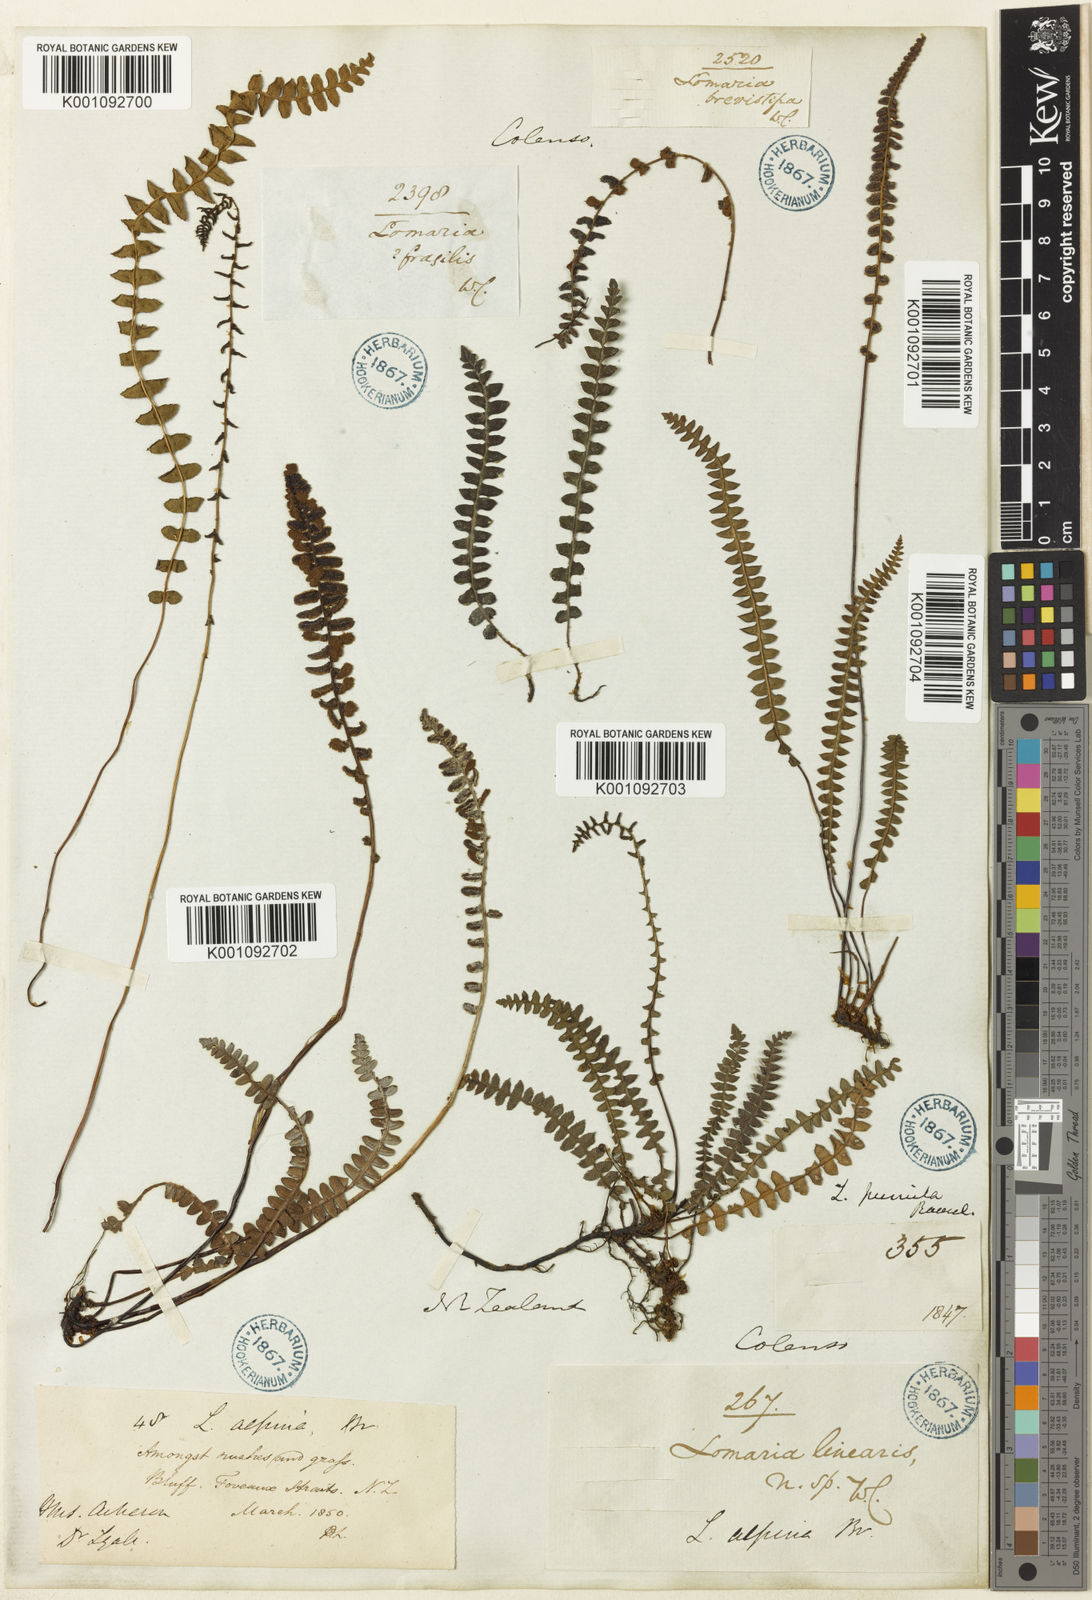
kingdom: Plantae
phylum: Tracheophyta
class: Polypodiopsida
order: Polypodiales
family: Blechnaceae
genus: Austroblechnum
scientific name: Austroblechnum penna-marina
